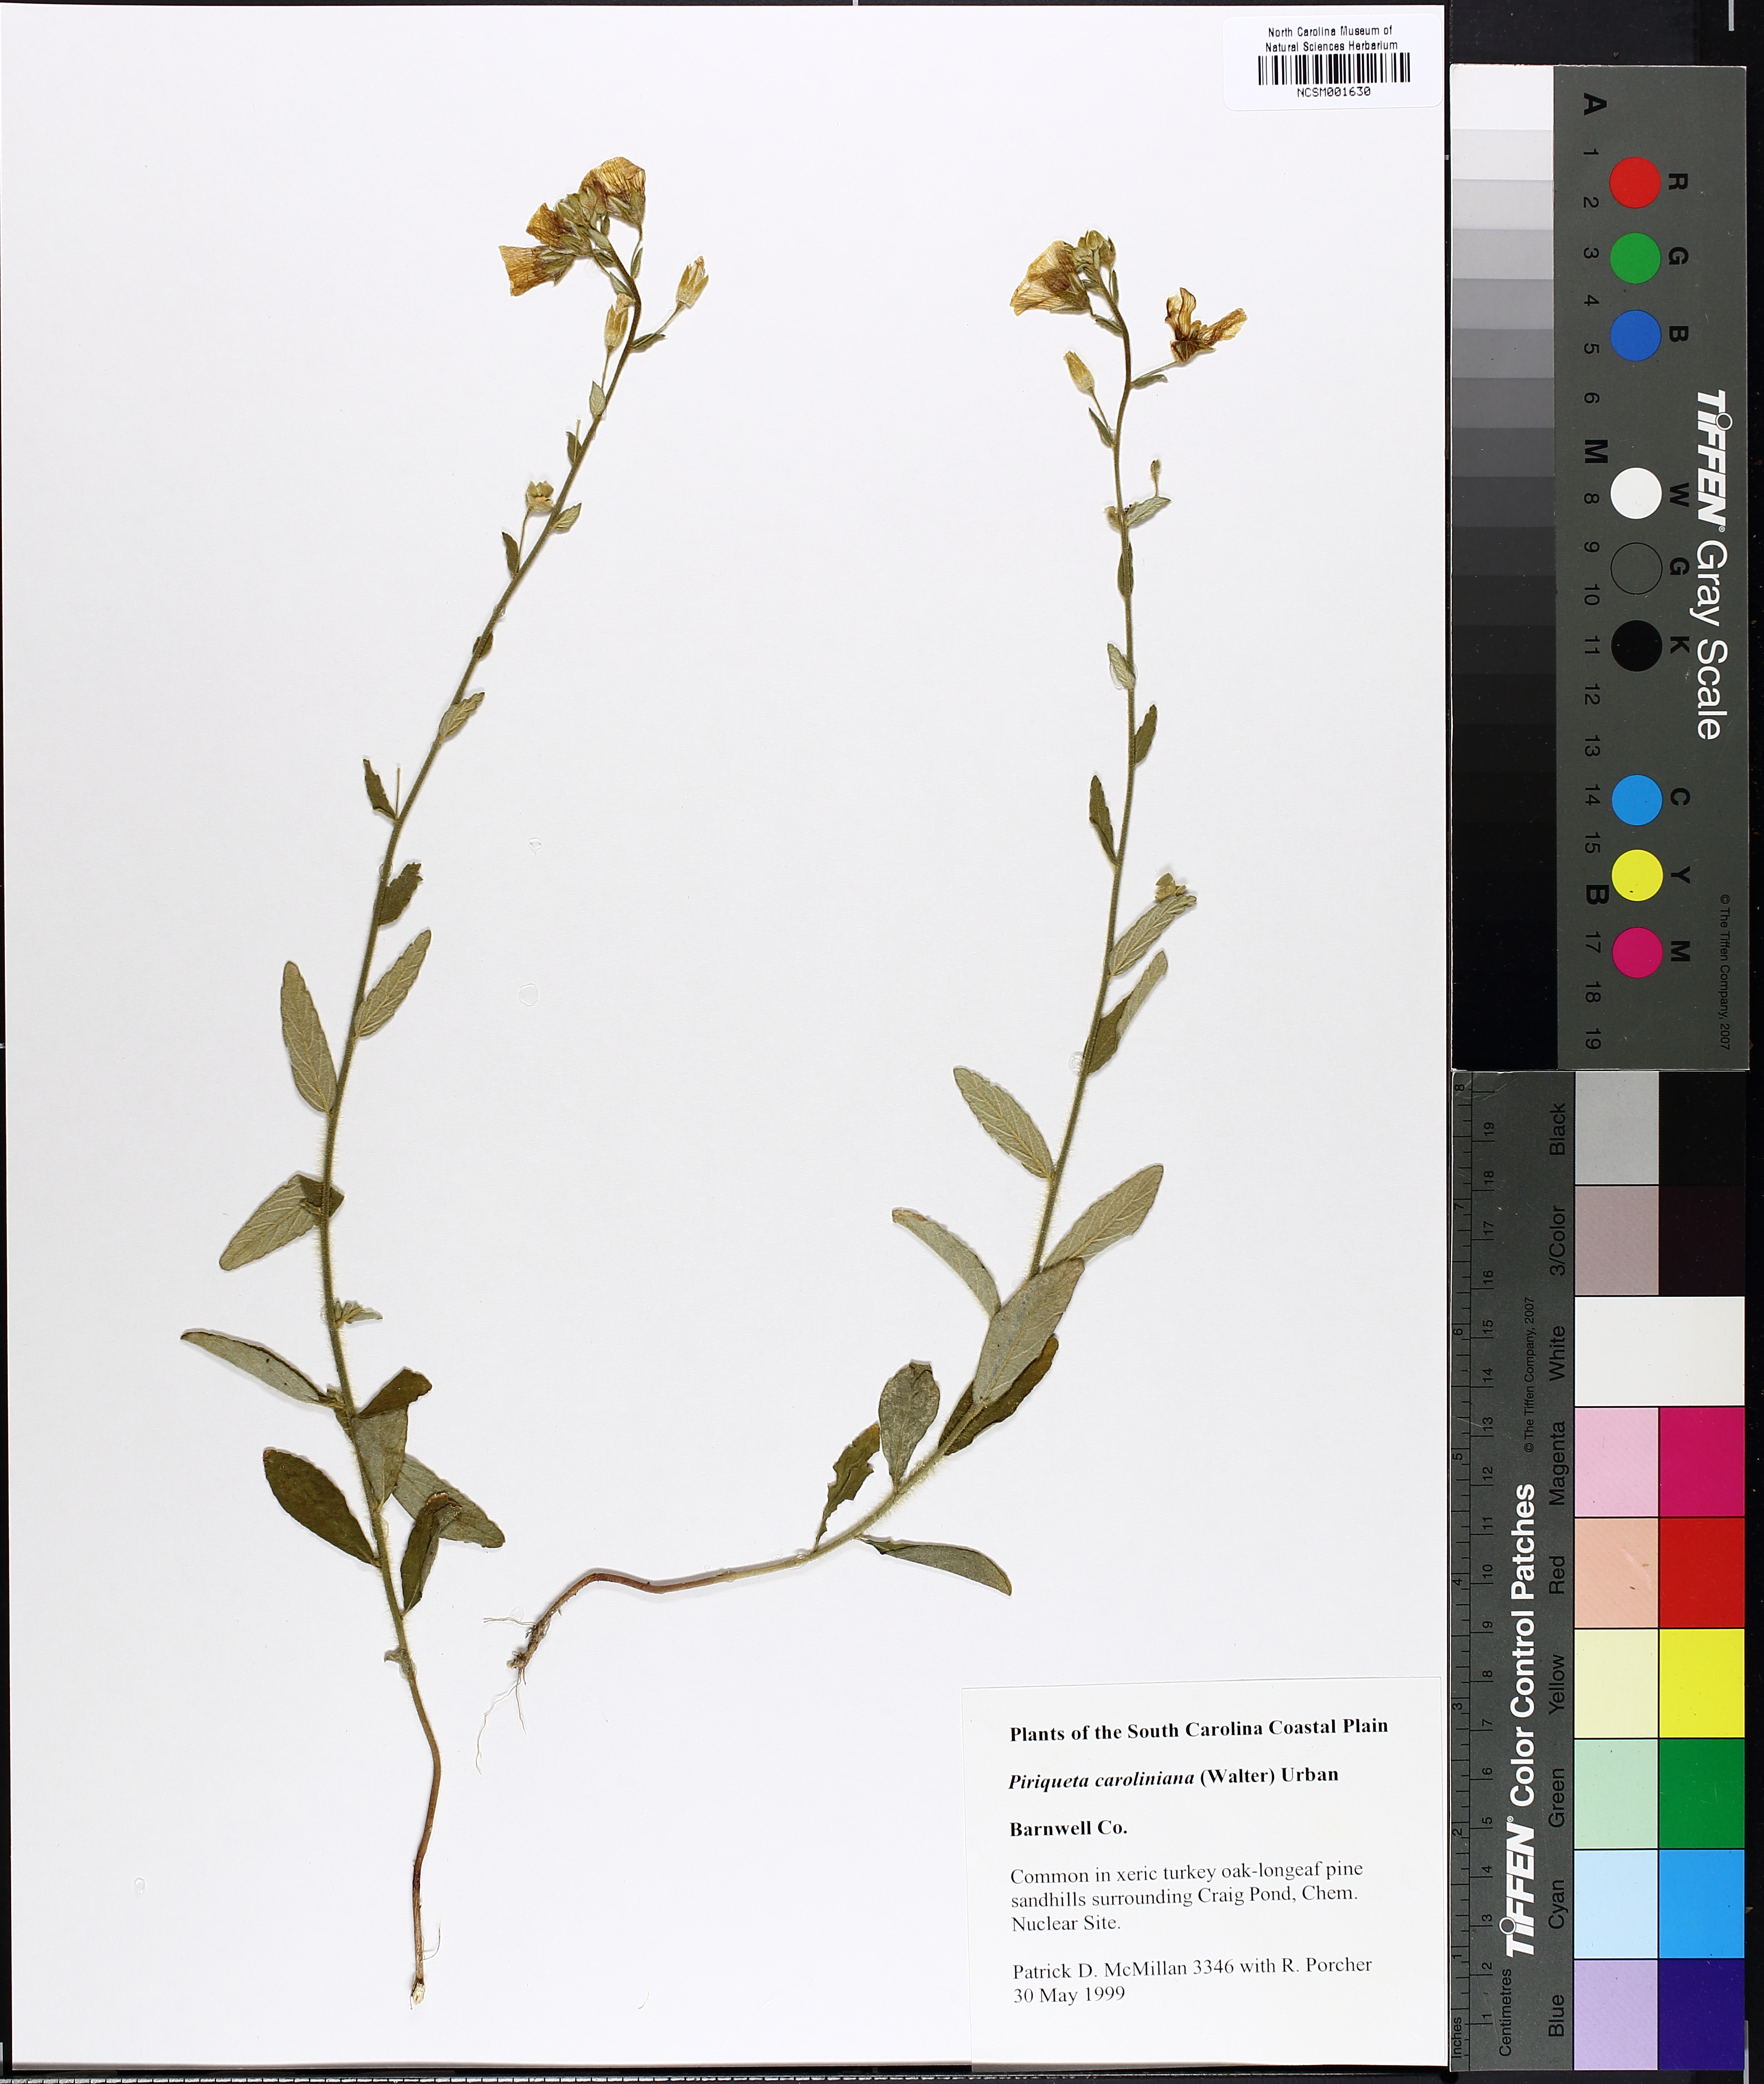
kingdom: Plantae
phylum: Tracheophyta
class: Magnoliopsida
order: Malpighiales
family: Turneraceae
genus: Piriqueta
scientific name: Piriqueta cistoides
